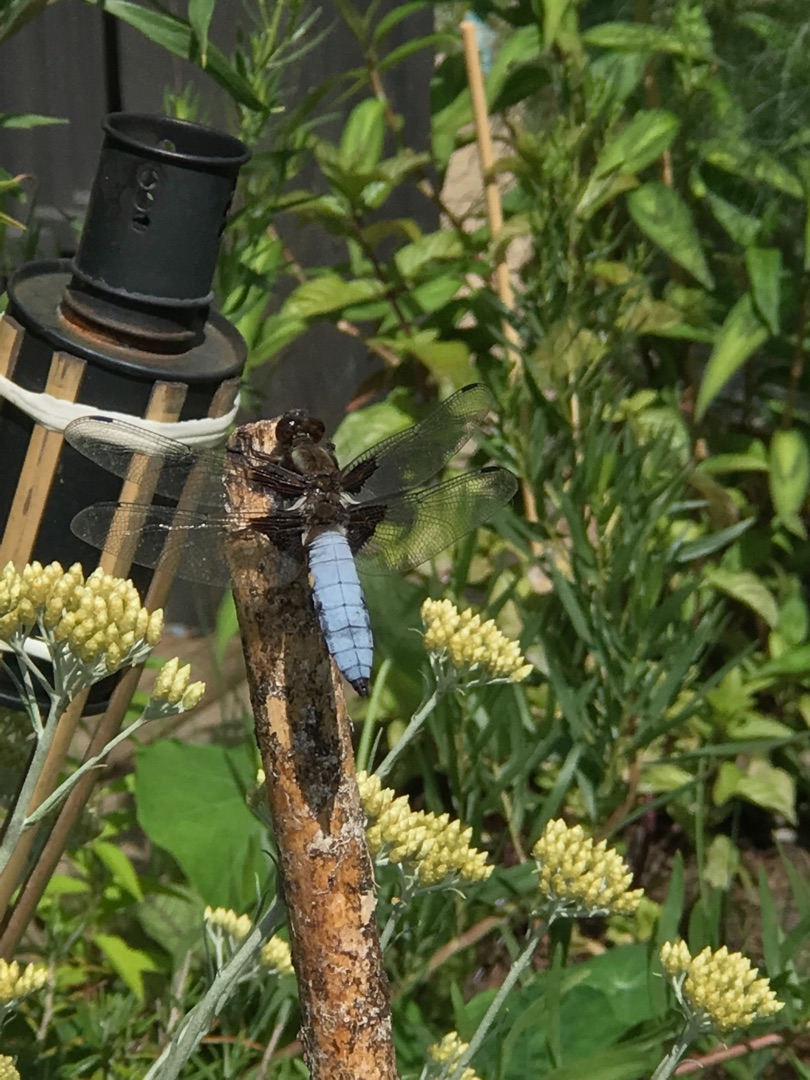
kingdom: Animalia
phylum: Arthropoda
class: Insecta
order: Odonata
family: Libellulidae
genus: Libellula
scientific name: Libellula depressa
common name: Blå libel
